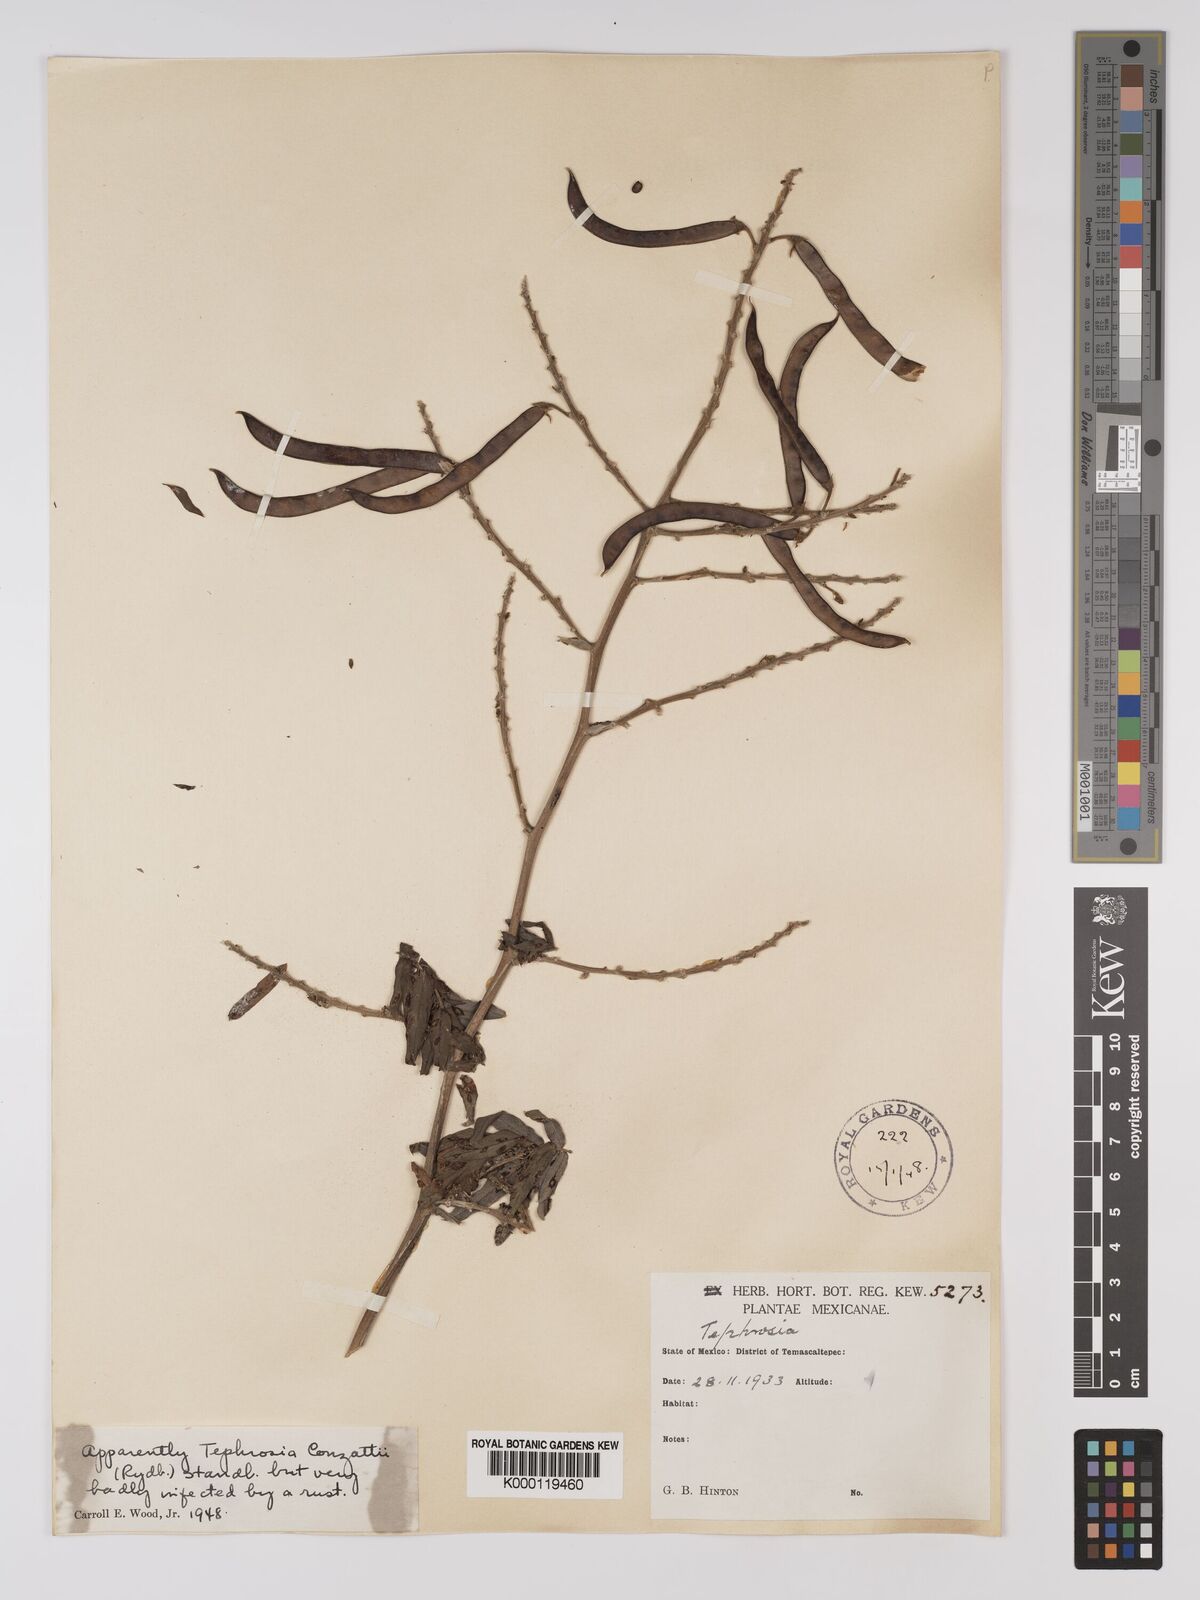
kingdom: Plantae
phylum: Tracheophyta
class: Magnoliopsida
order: Fabales
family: Fabaceae
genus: Tephrosia
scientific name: Tephrosia conzattii
